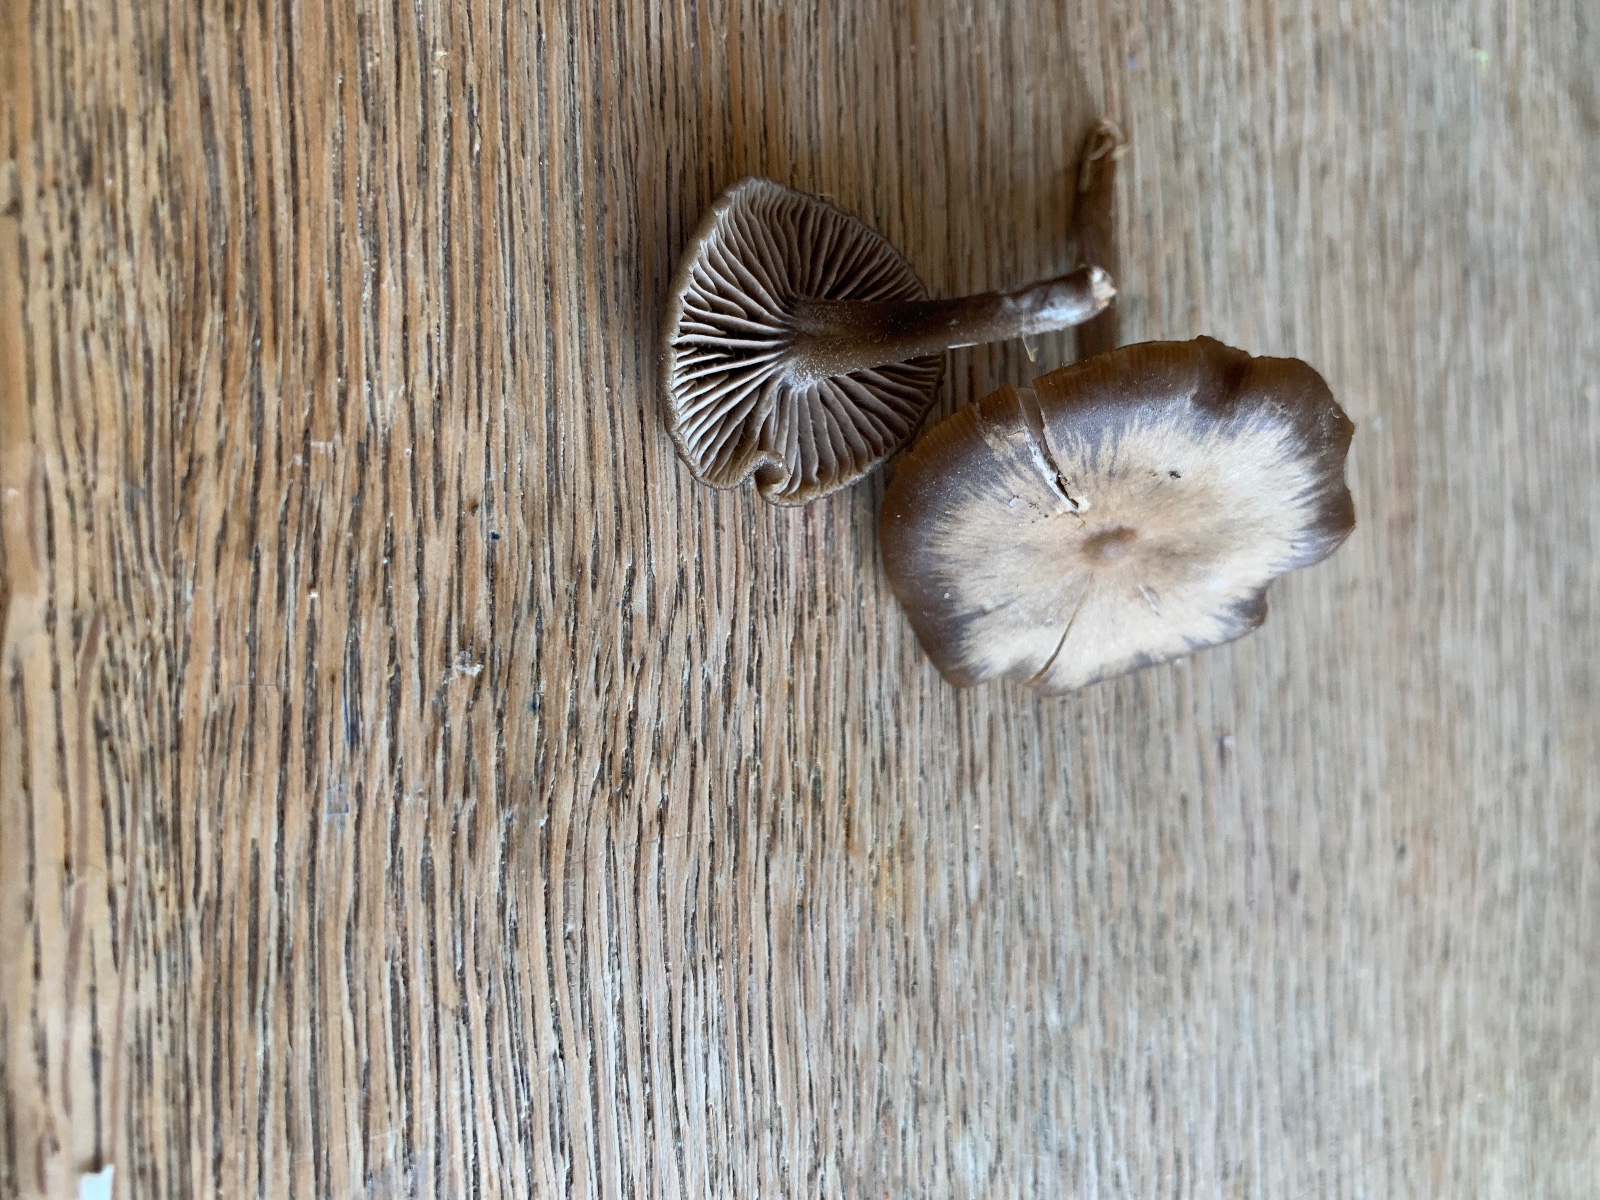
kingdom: Fungi
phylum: Basidiomycota
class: Agaricomycetes
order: Agaricales
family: Entolomataceae
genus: Entoloma
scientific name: Entoloma sericeum
